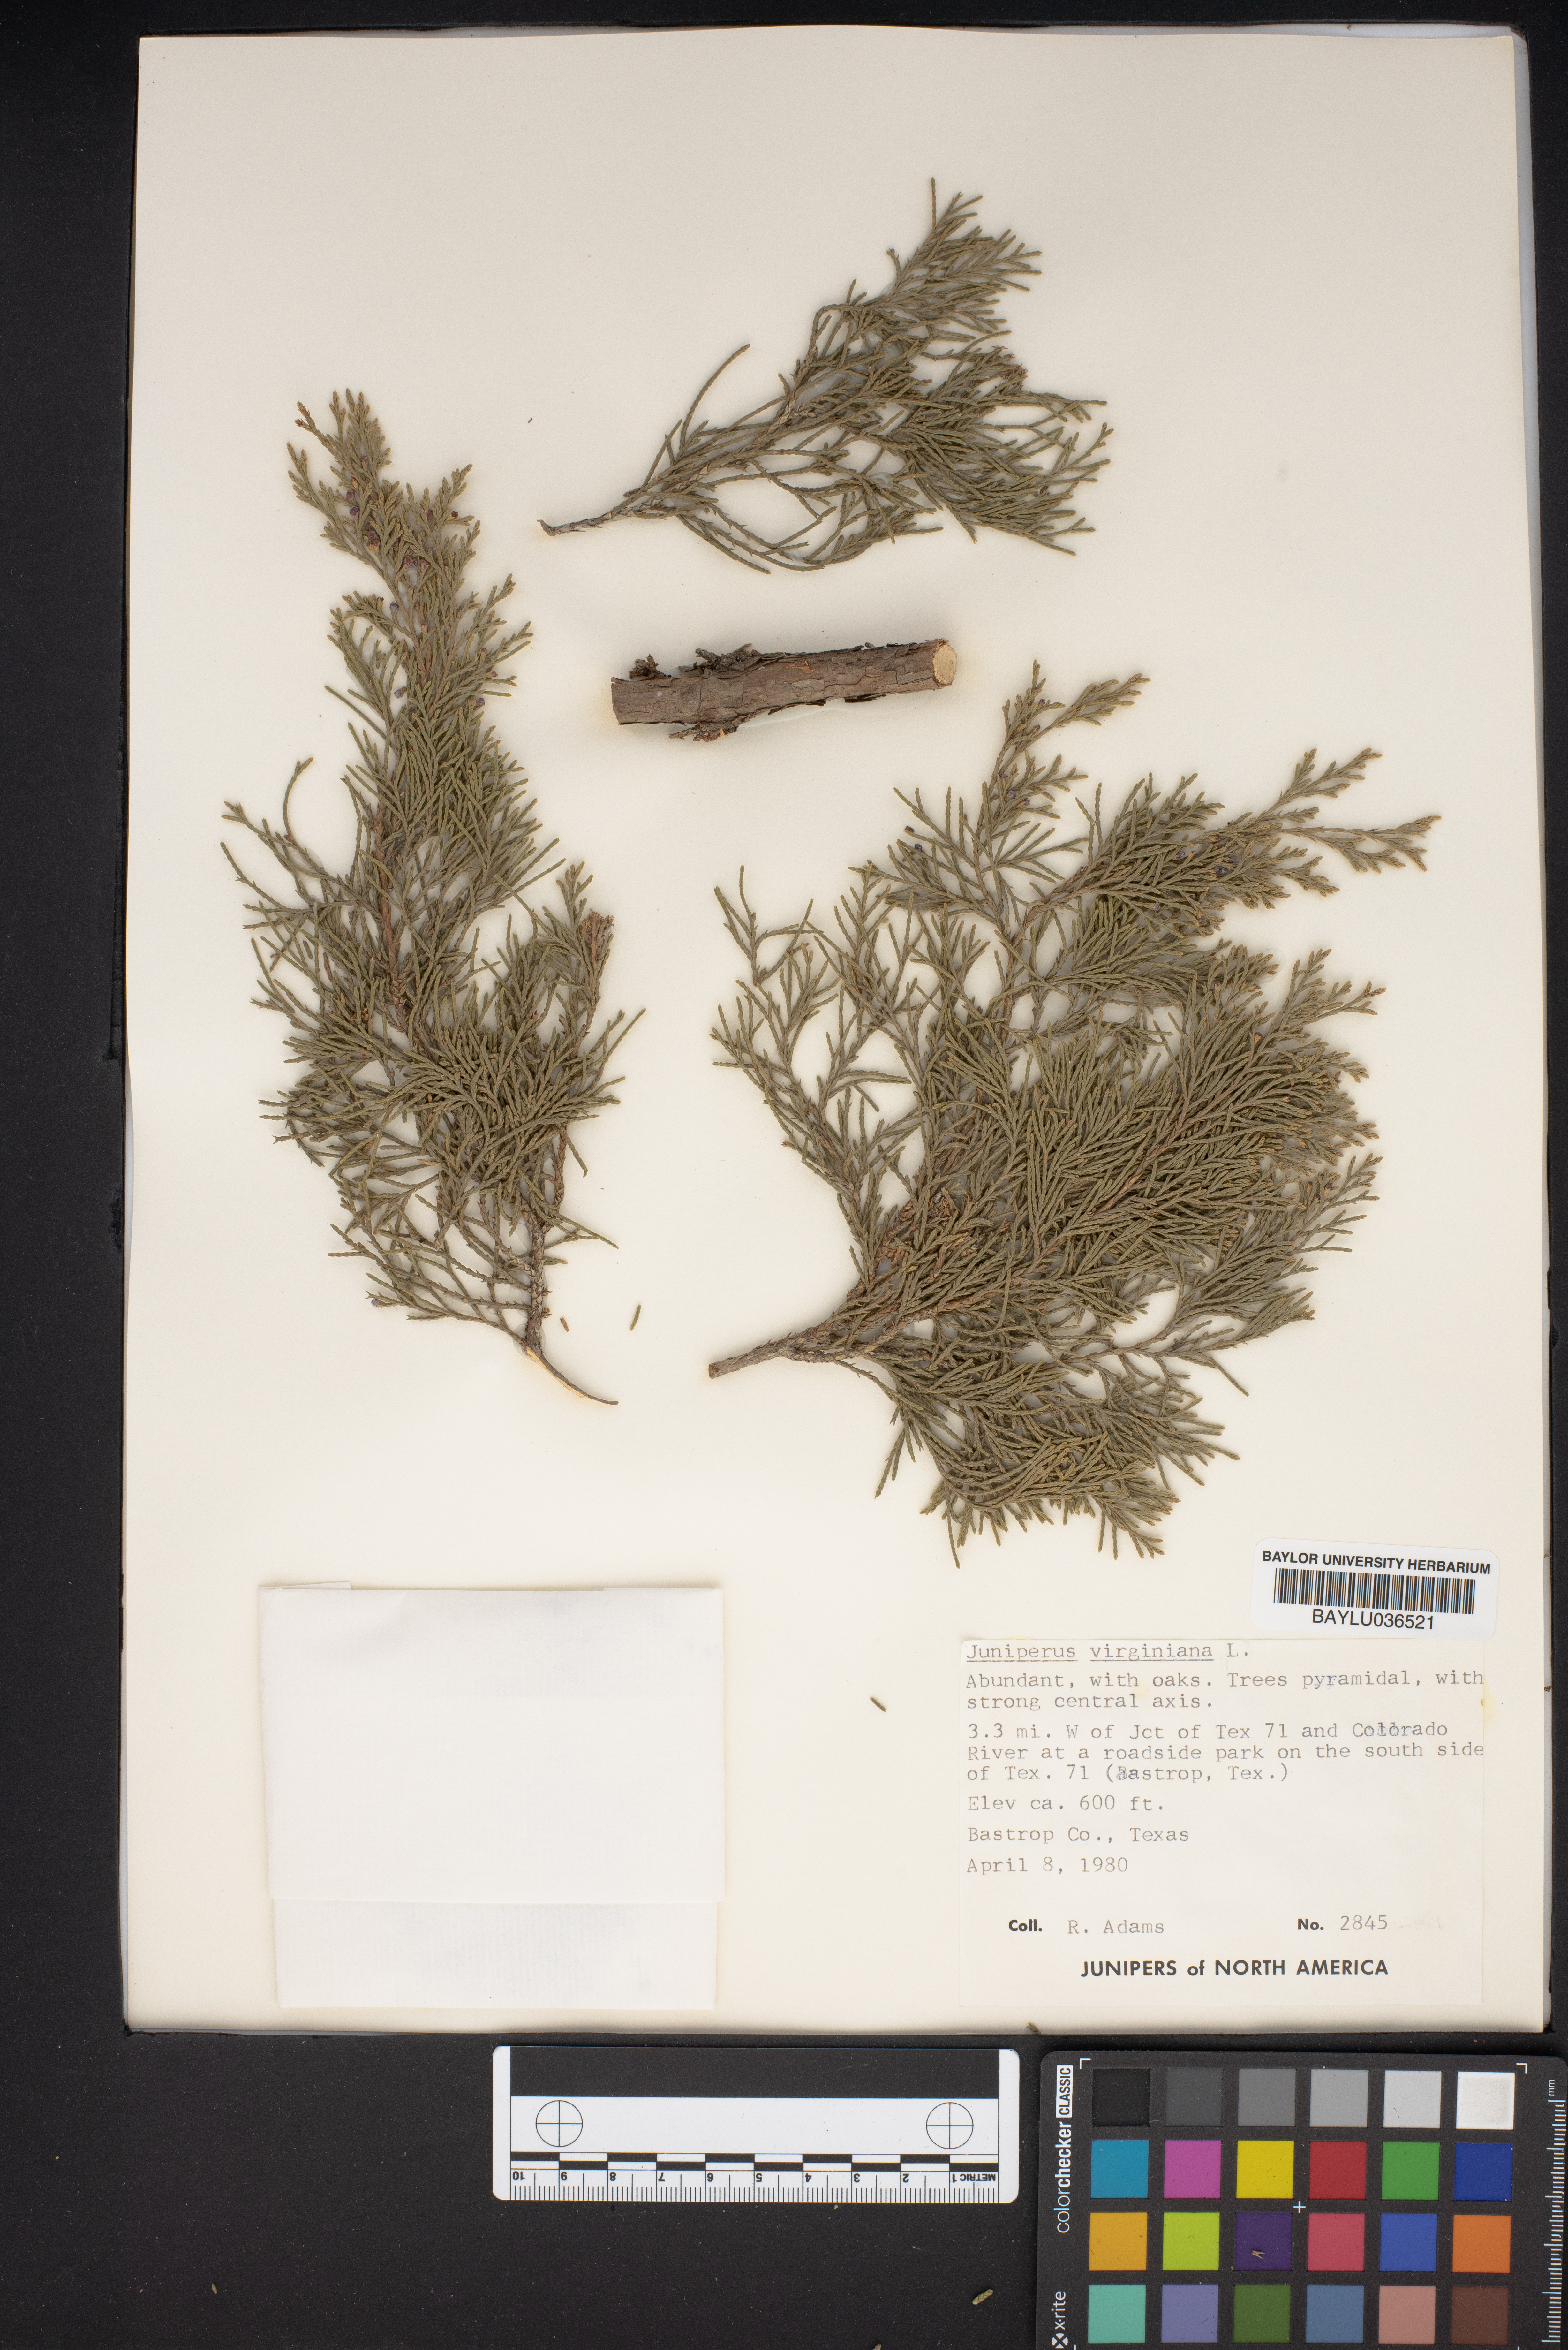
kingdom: Plantae
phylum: Tracheophyta
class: Pinopsida
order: Pinales
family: Cupressaceae
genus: Juniperus
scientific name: Juniperus virginiana
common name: Red juniper
